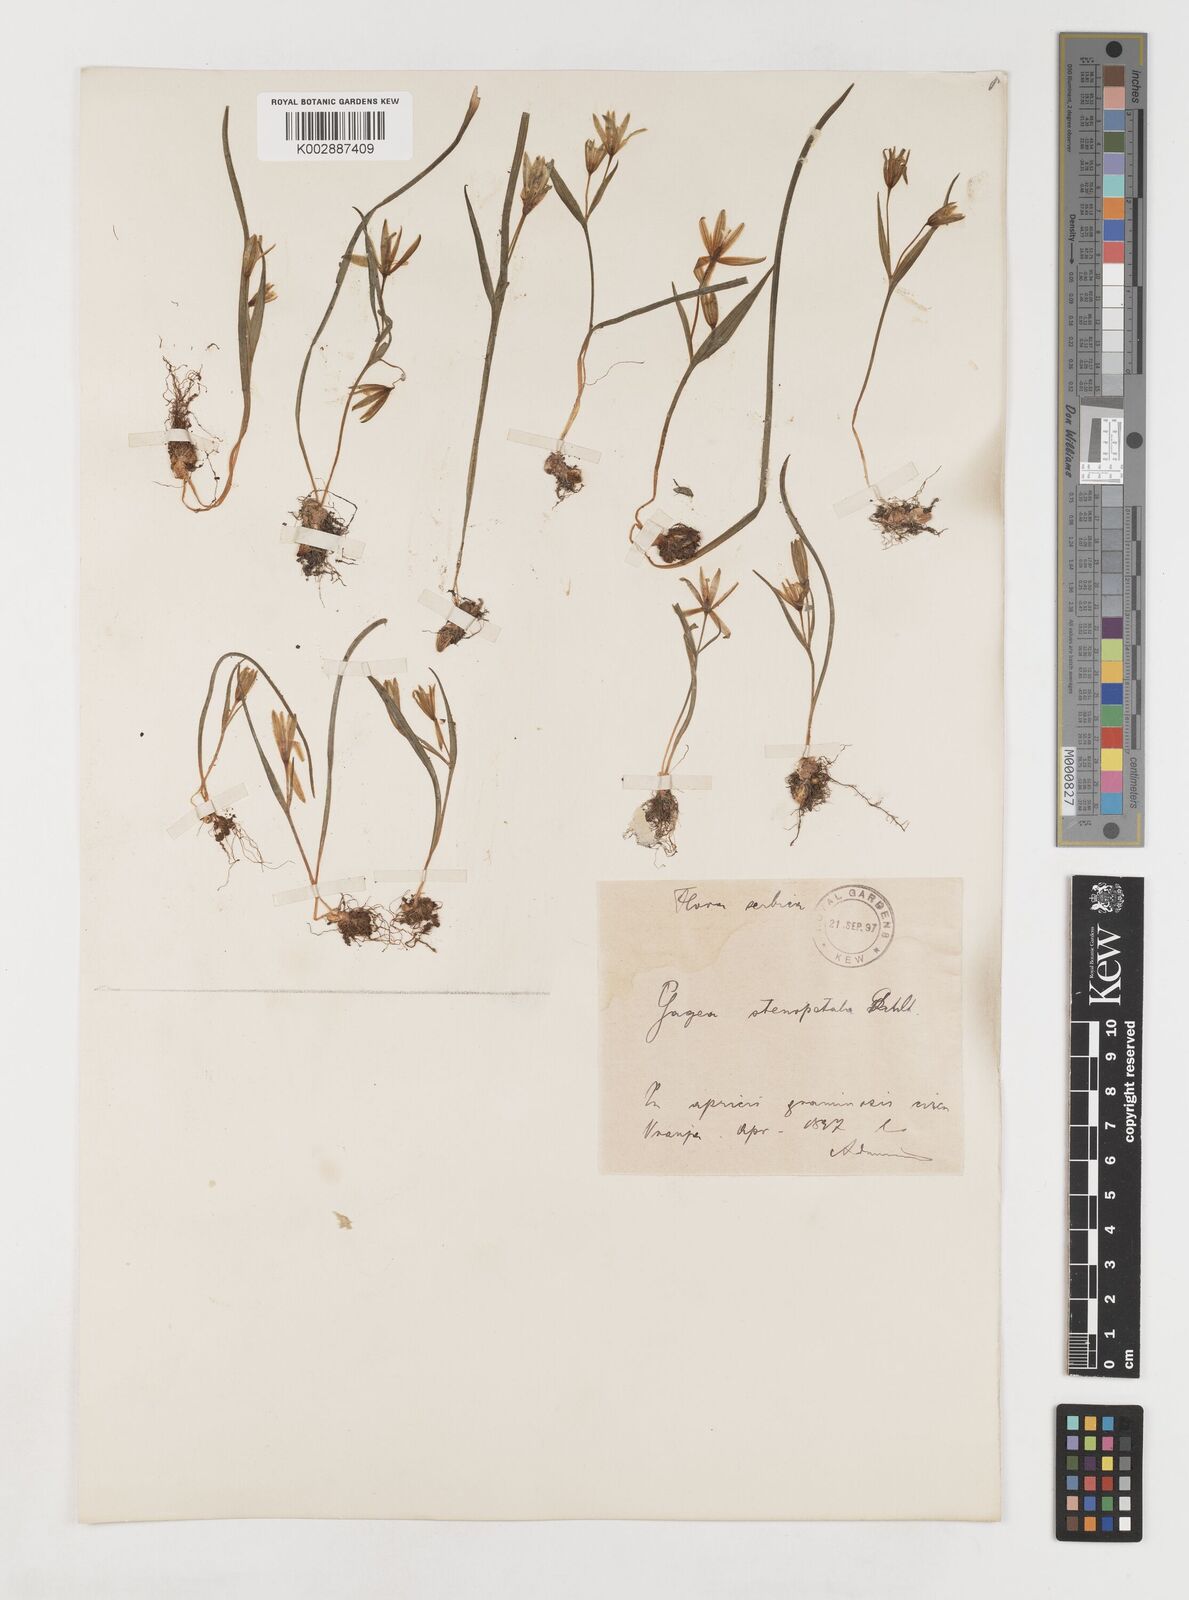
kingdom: Plantae
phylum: Tracheophyta
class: Liliopsida
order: Liliales
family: Liliaceae
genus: Gagea
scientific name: Gagea pratensis
